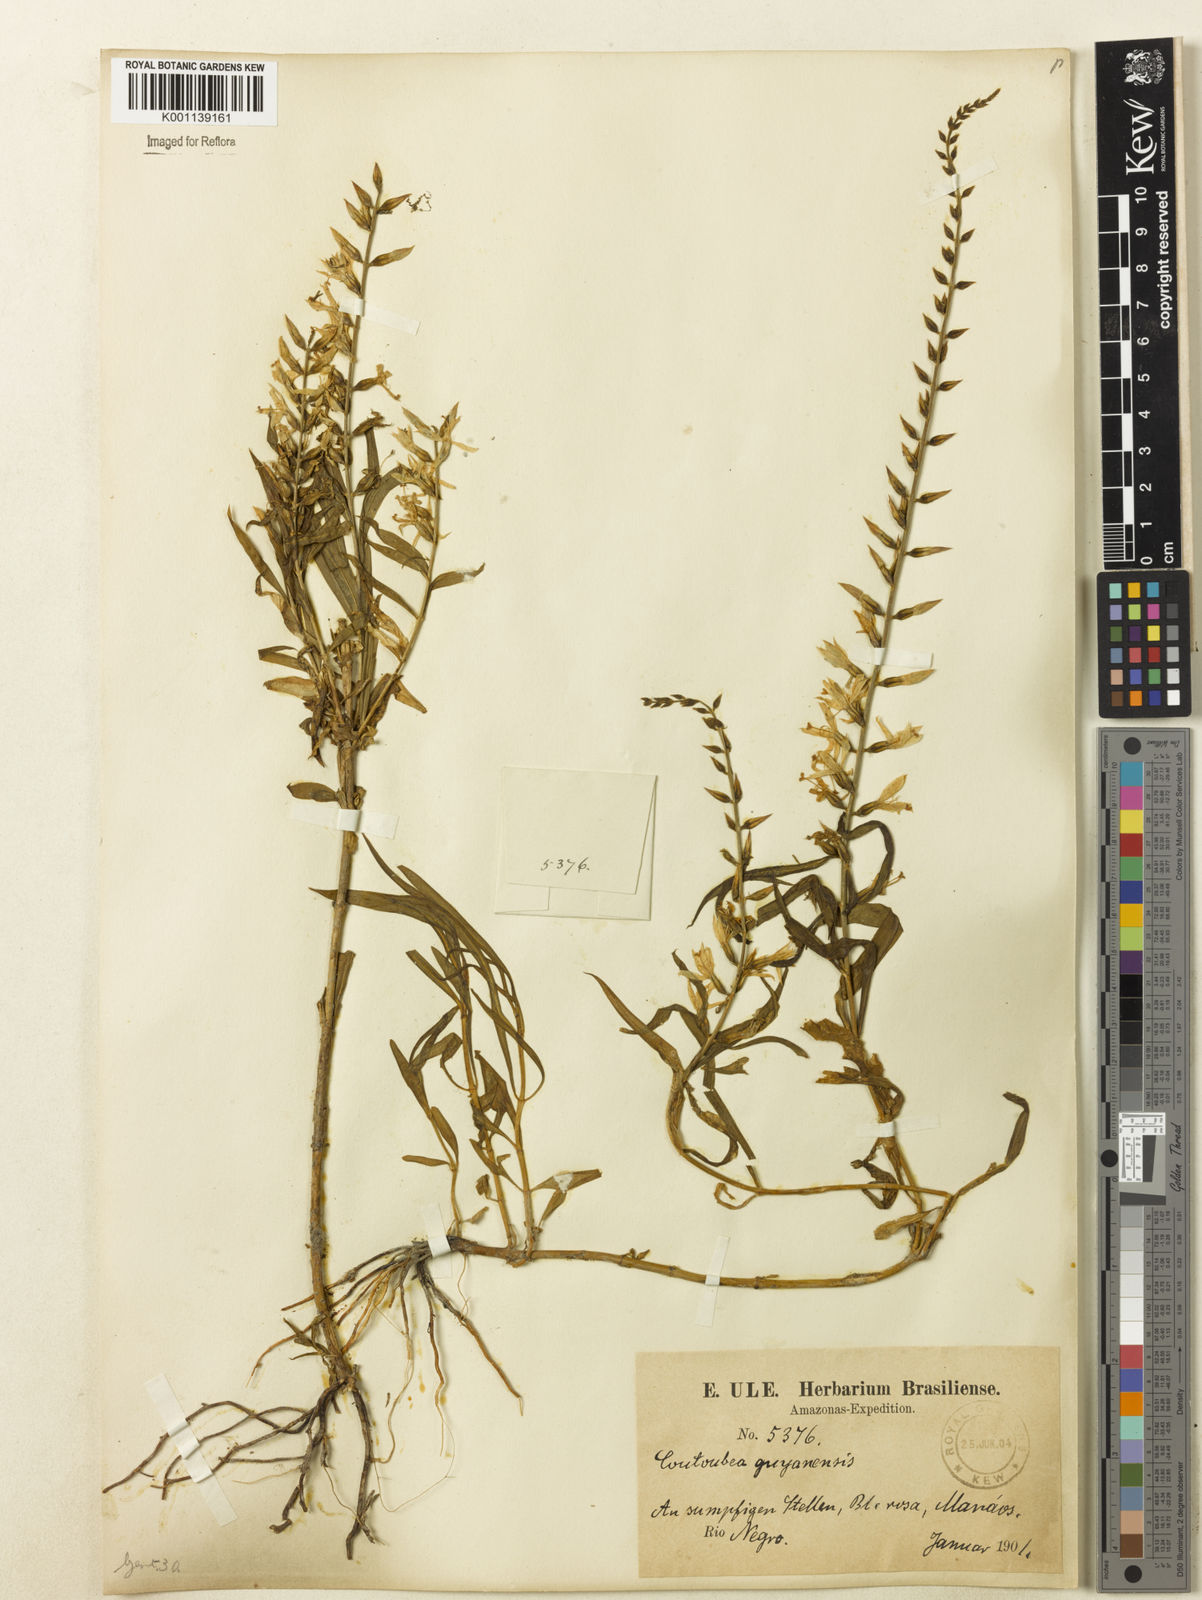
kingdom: Plantae
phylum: Tracheophyta
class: Magnoliopsida
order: Gentianales
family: Gentianaceae
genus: Coutoubea
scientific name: Coutoubea ramosa
